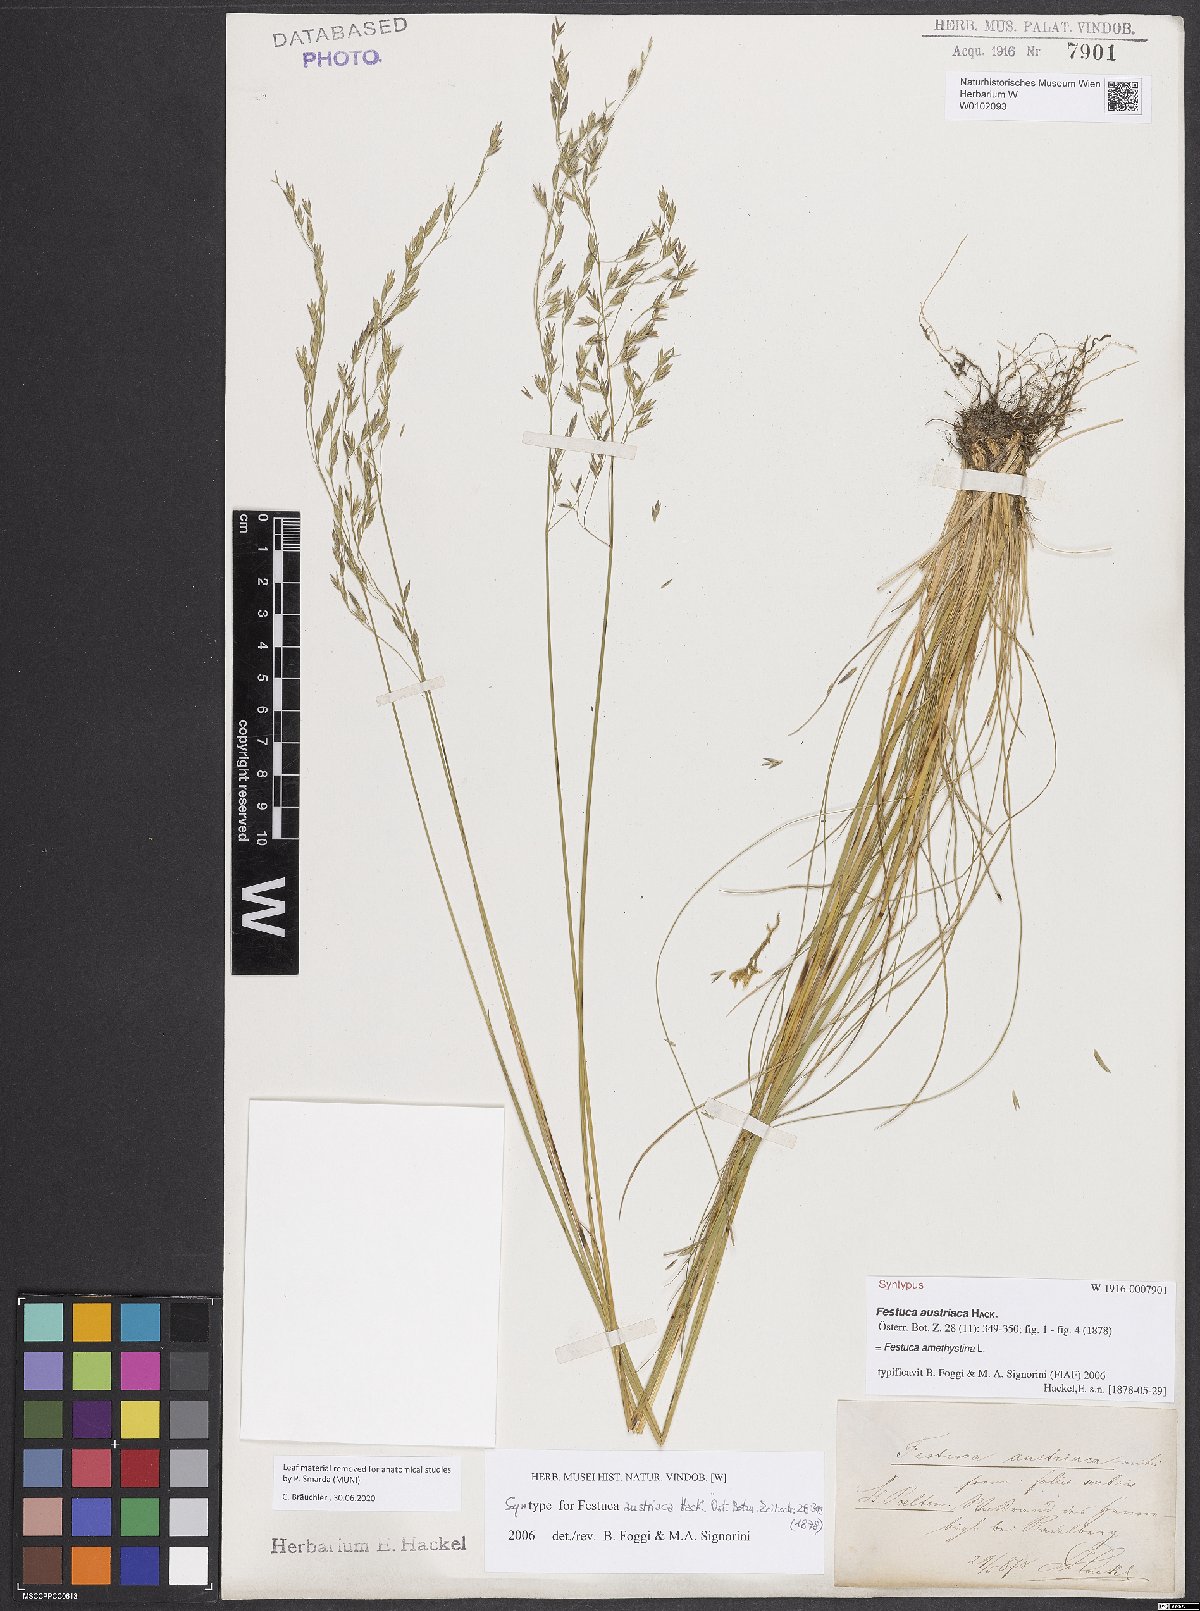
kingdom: Plantae
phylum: Tracheophyta
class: Liliopsida
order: Poales
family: Poaceae
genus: Festuca
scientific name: Festuca amethystina
